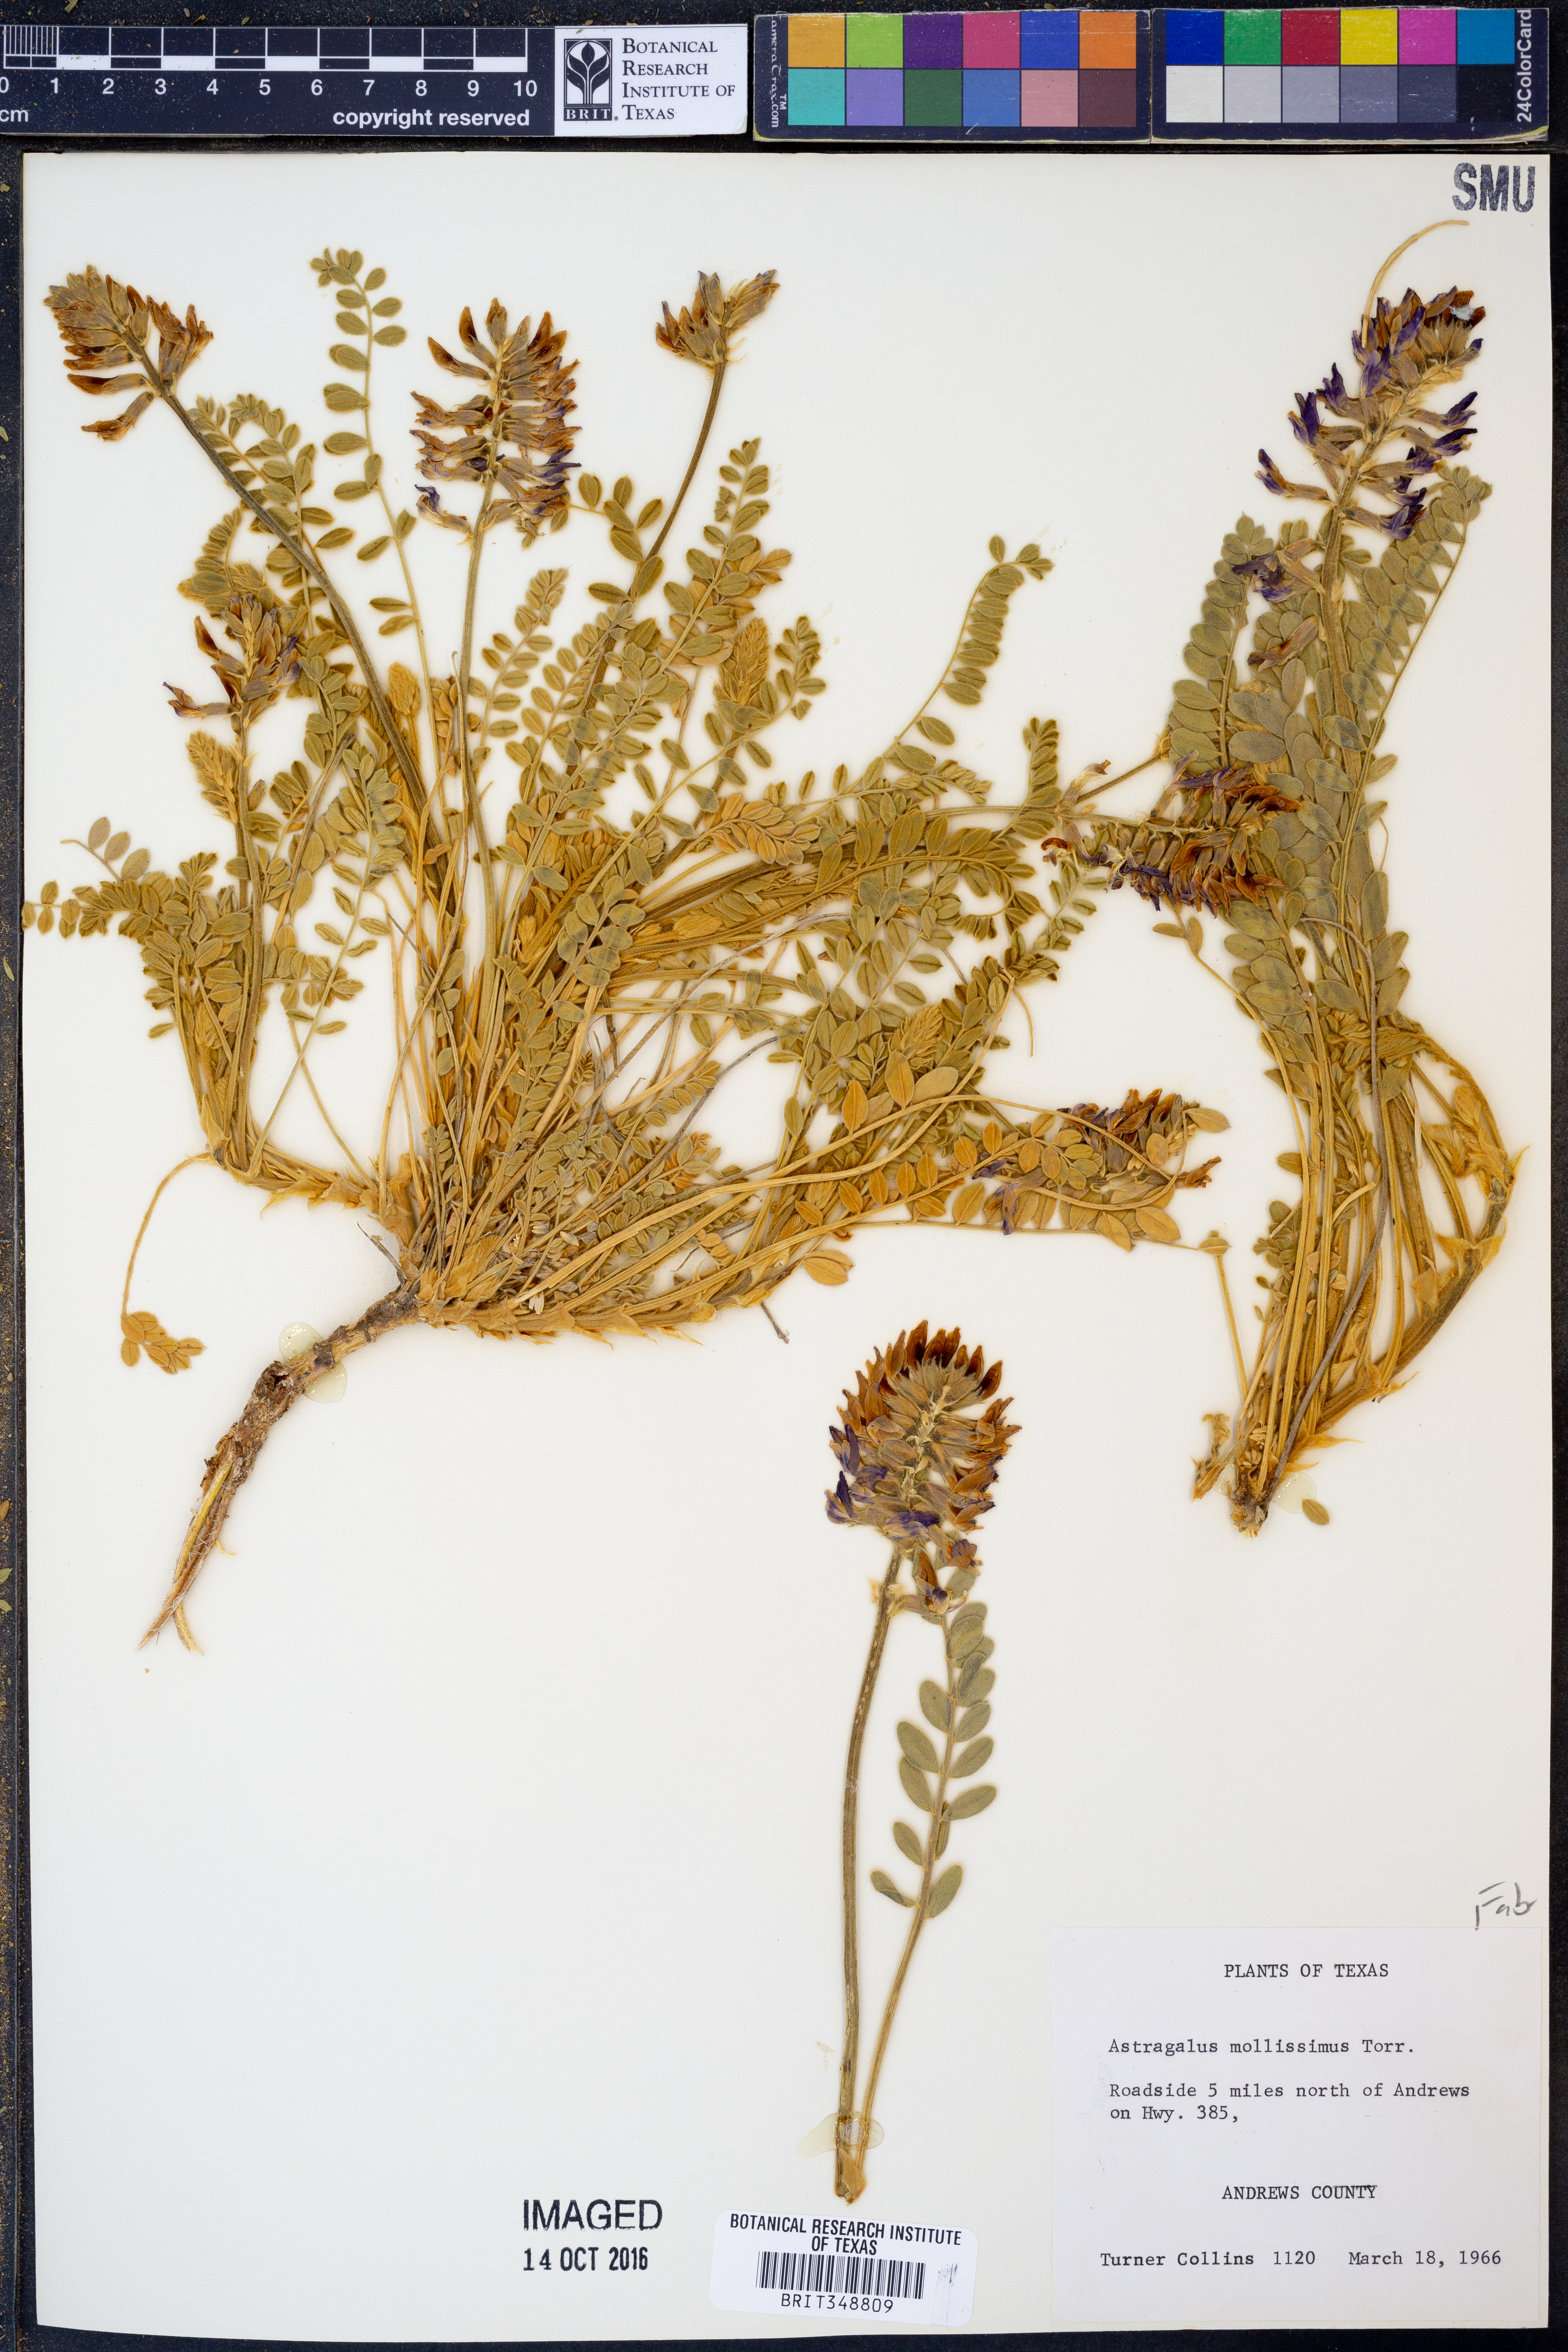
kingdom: Plantae
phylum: Tracheophyta
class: Magnoliopsida
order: Fabales
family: Fabaceae
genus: Astragalus
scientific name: Astragalus mollissimus
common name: Woolly locoweed
